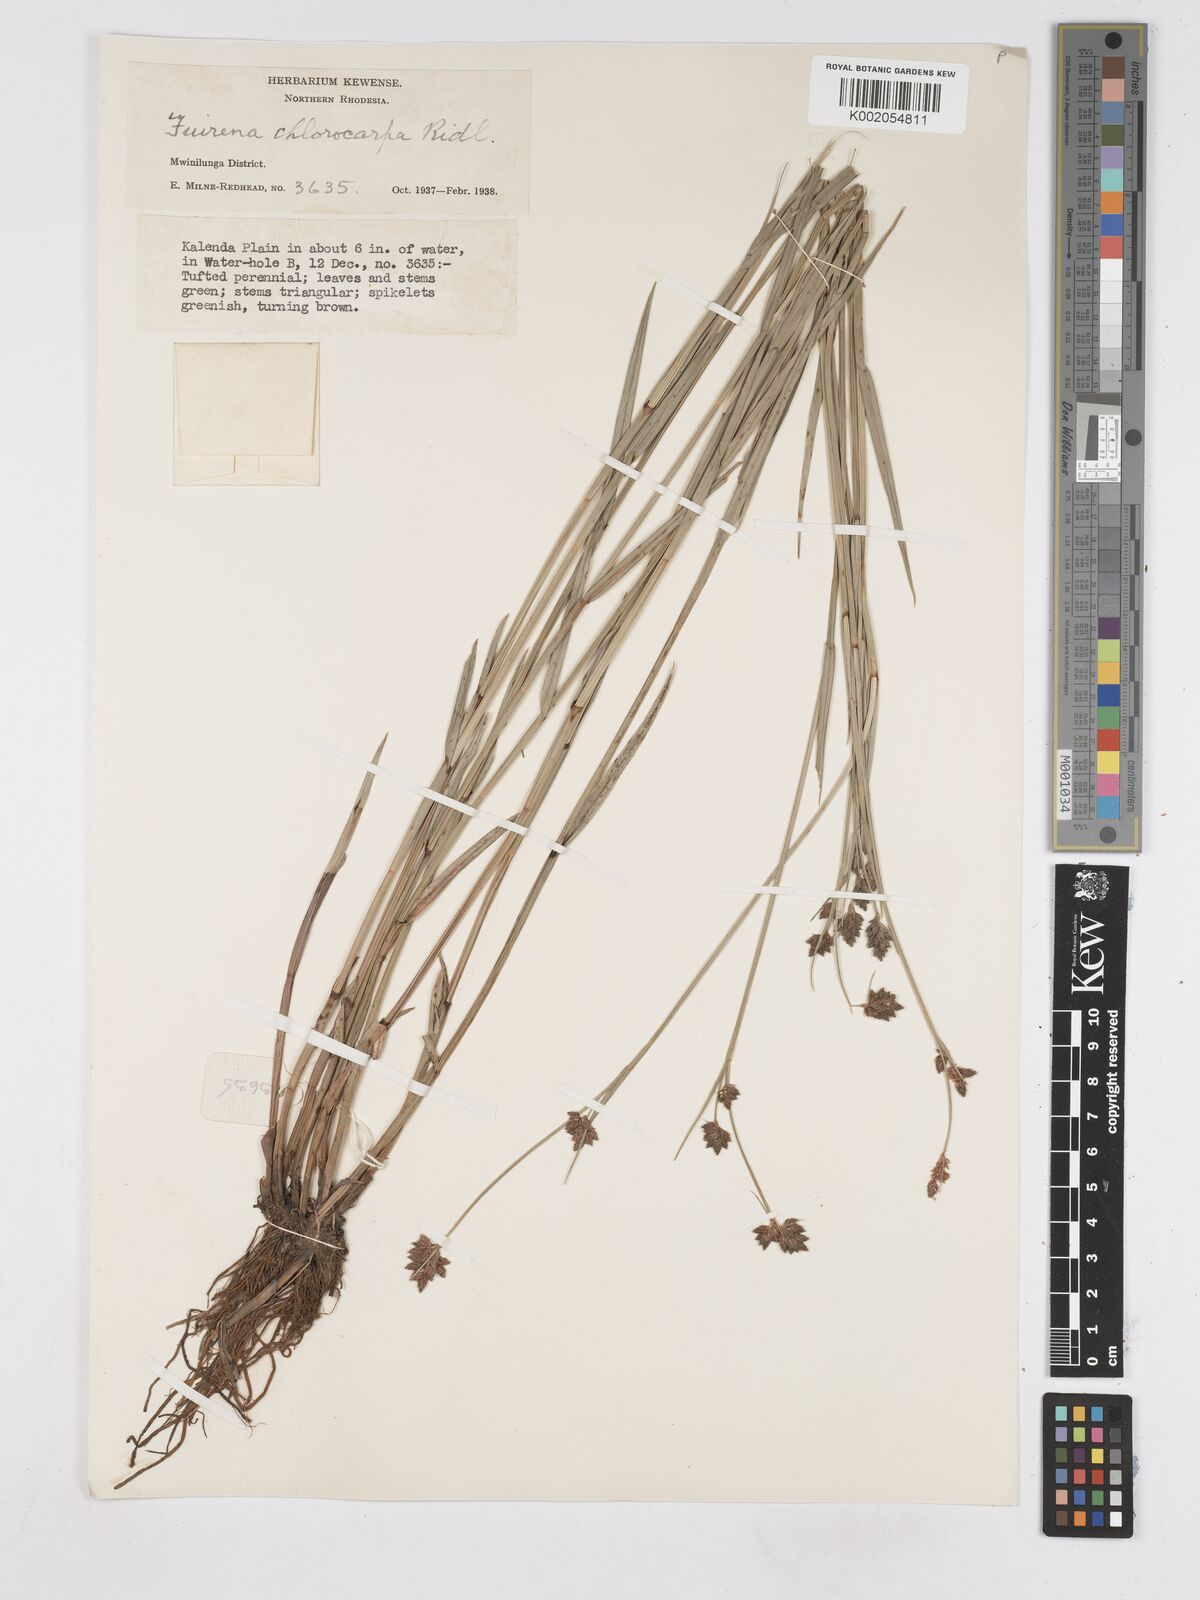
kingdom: Plantae
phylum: Tracheophyta
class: Liliopsida
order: Poales
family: Cyperaceae
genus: Fuirena
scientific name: Fuirena stricta
